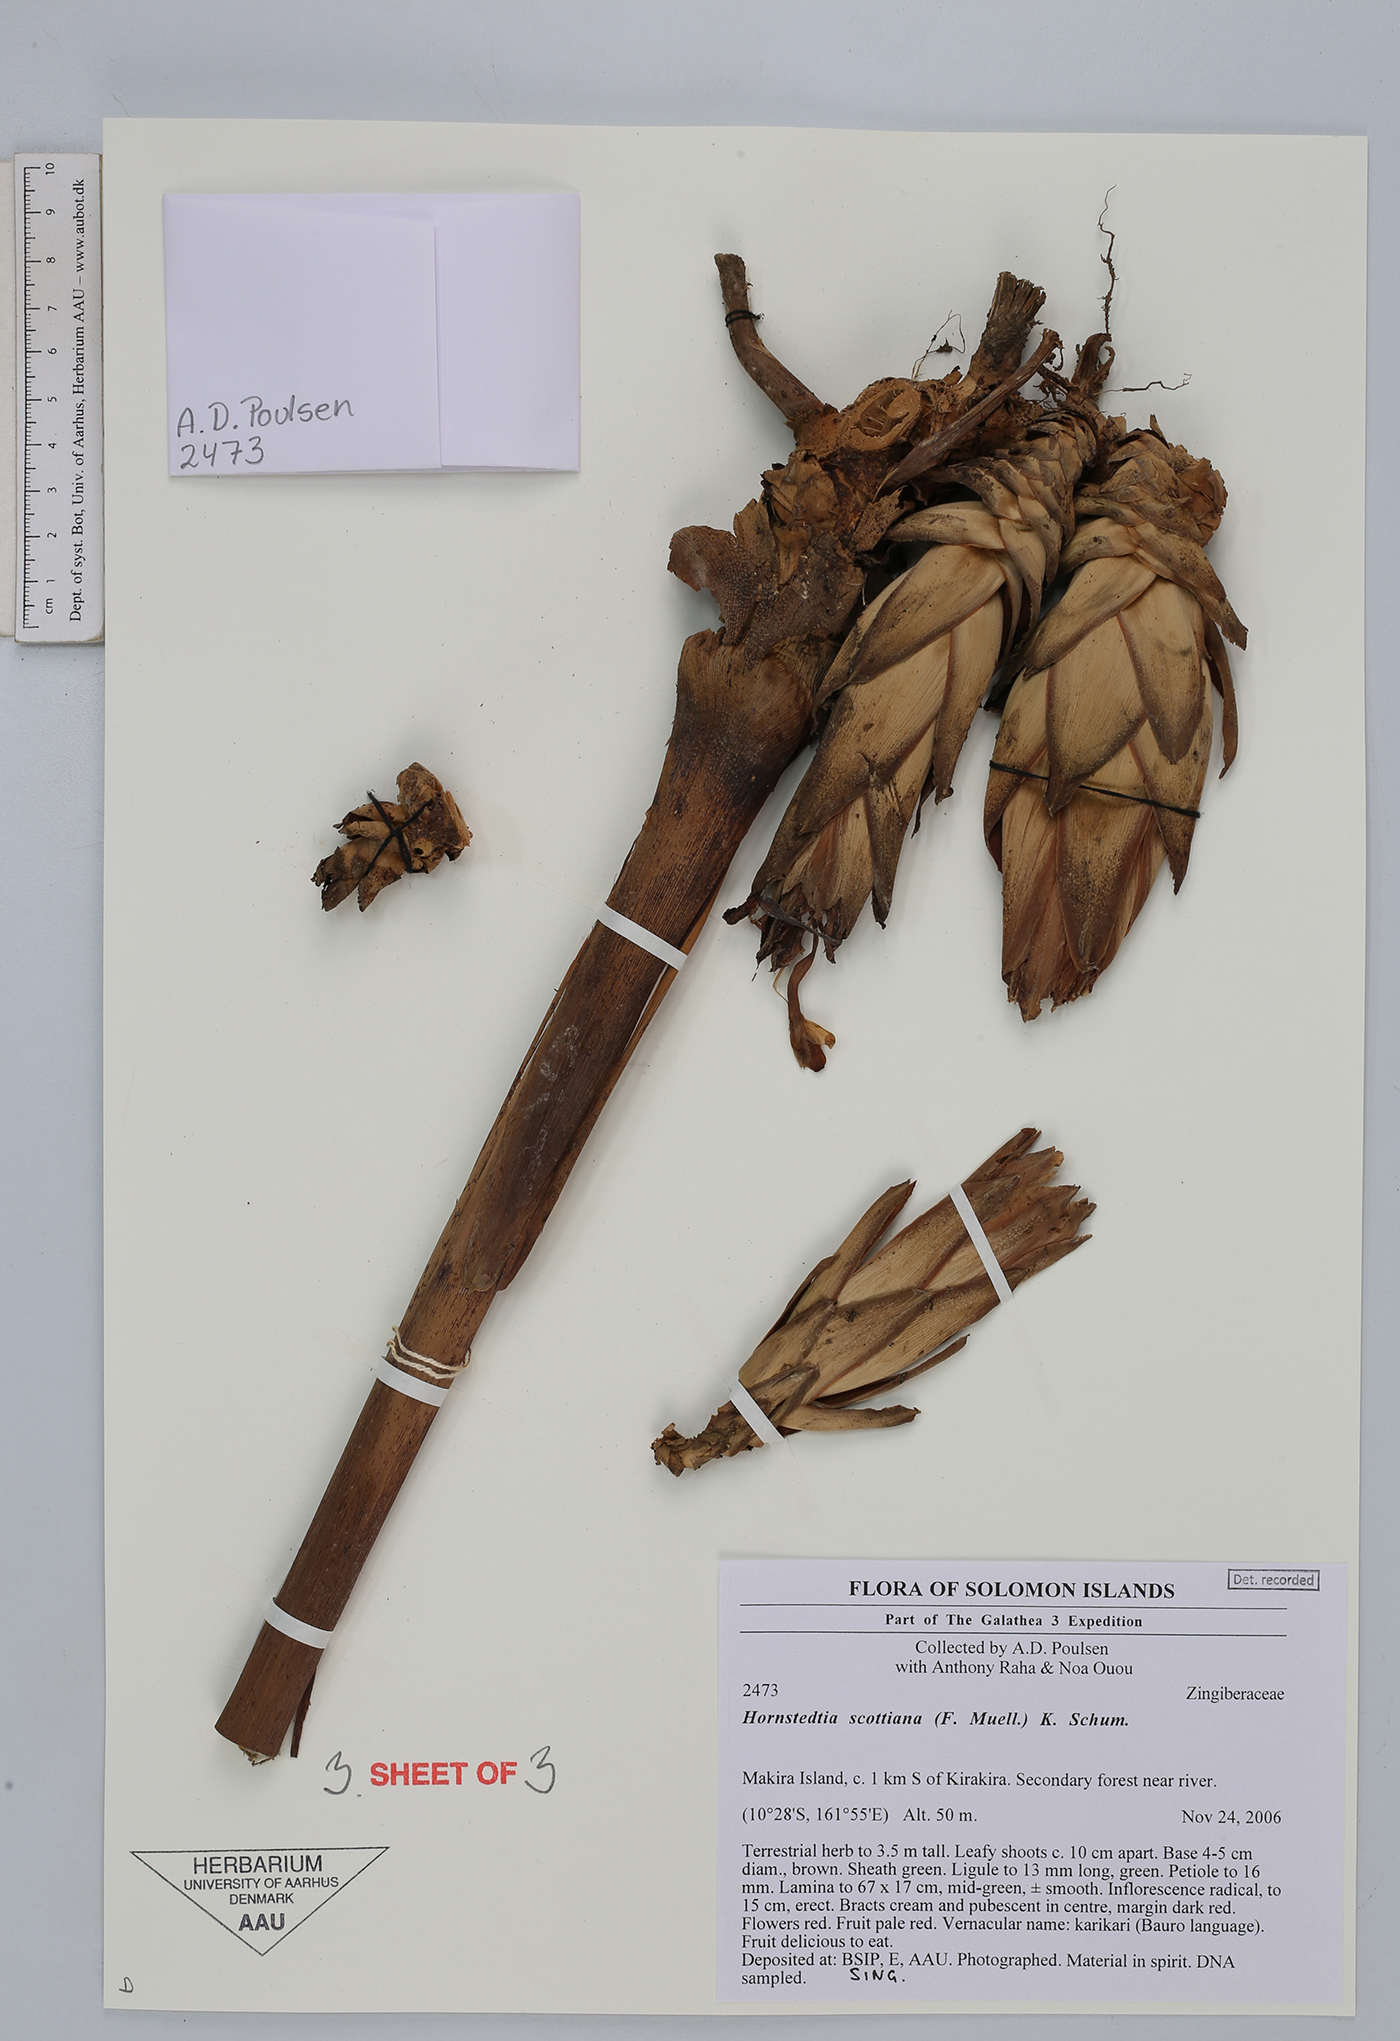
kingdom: Plantae
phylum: Tracheophyta
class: Liliopsida
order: Zingiberales
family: Zingiberaceae
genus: Hornstedtia
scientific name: Hornstedtia scottiana
